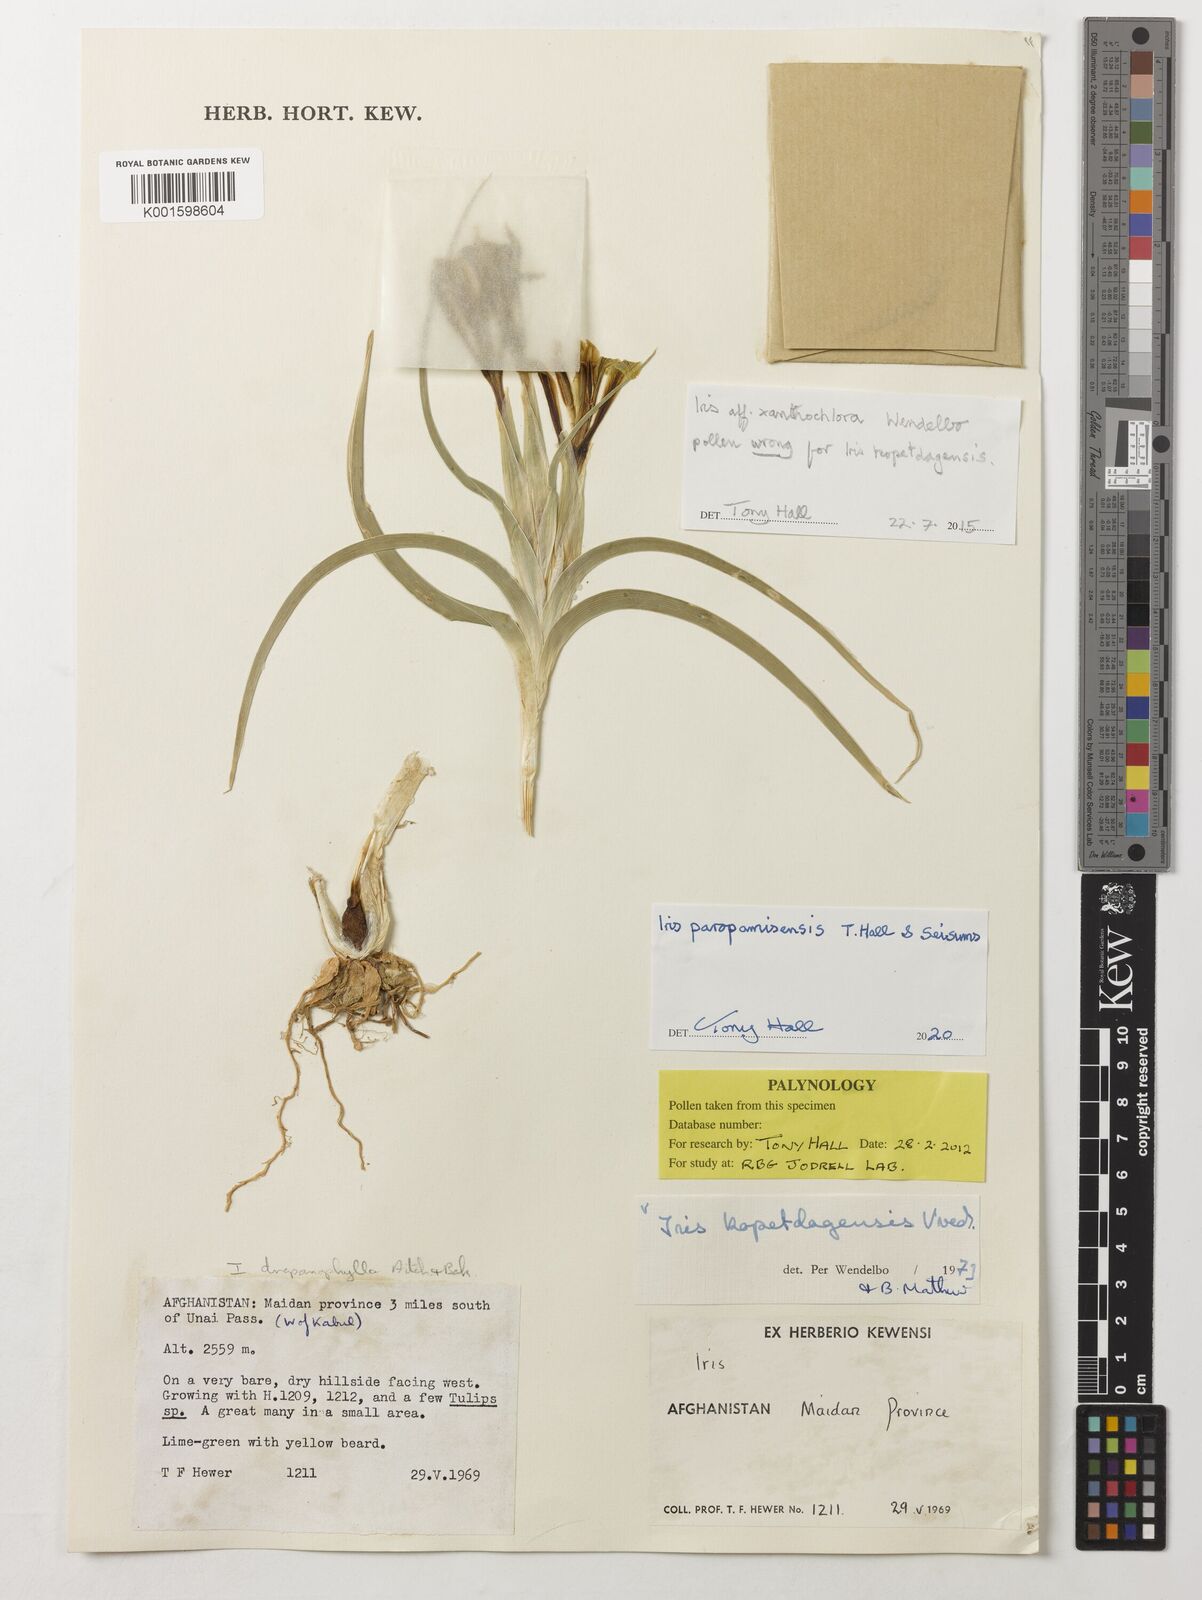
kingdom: Plantae
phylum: Tracheophyta
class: Liliopsida
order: Asparagales
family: Iridaceae
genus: Iris
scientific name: Iris
